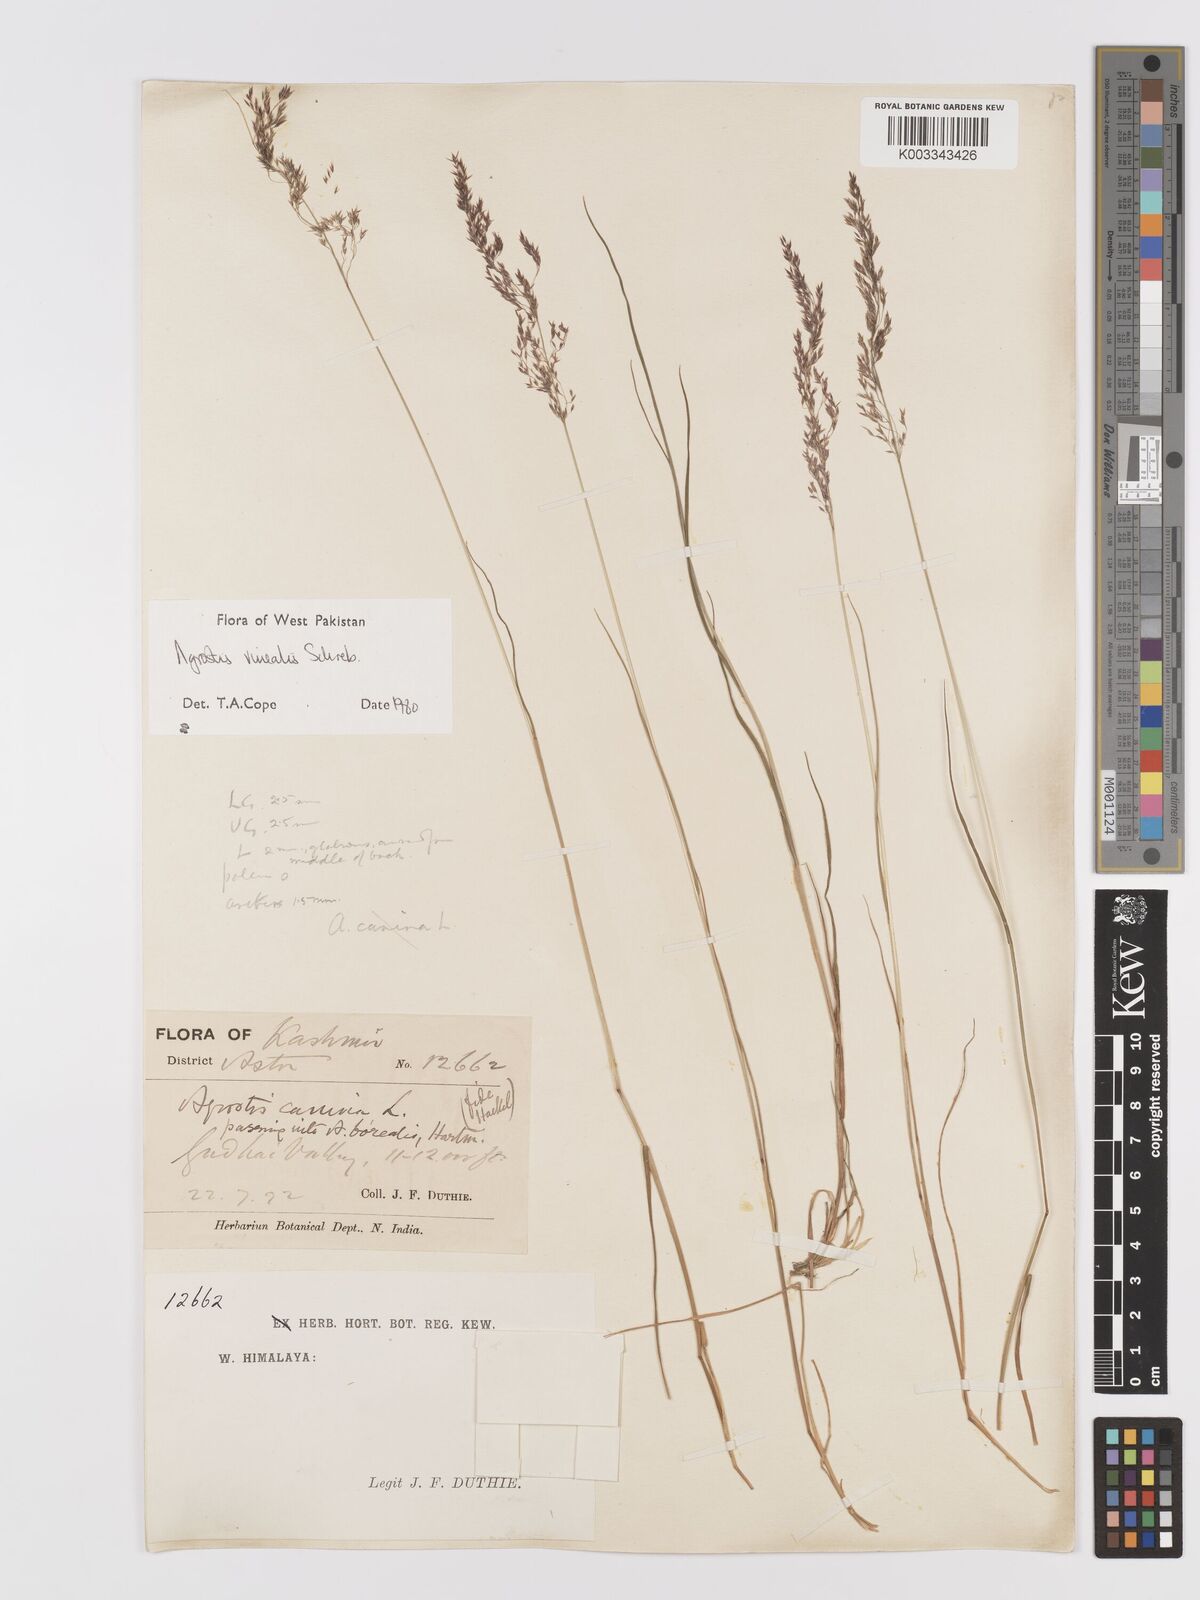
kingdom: Plantae
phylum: Tracheophyta
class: Liliopsida
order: Poales
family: Poaceae
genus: Agrostis
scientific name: Agrostis vinealis
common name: Brown bent
